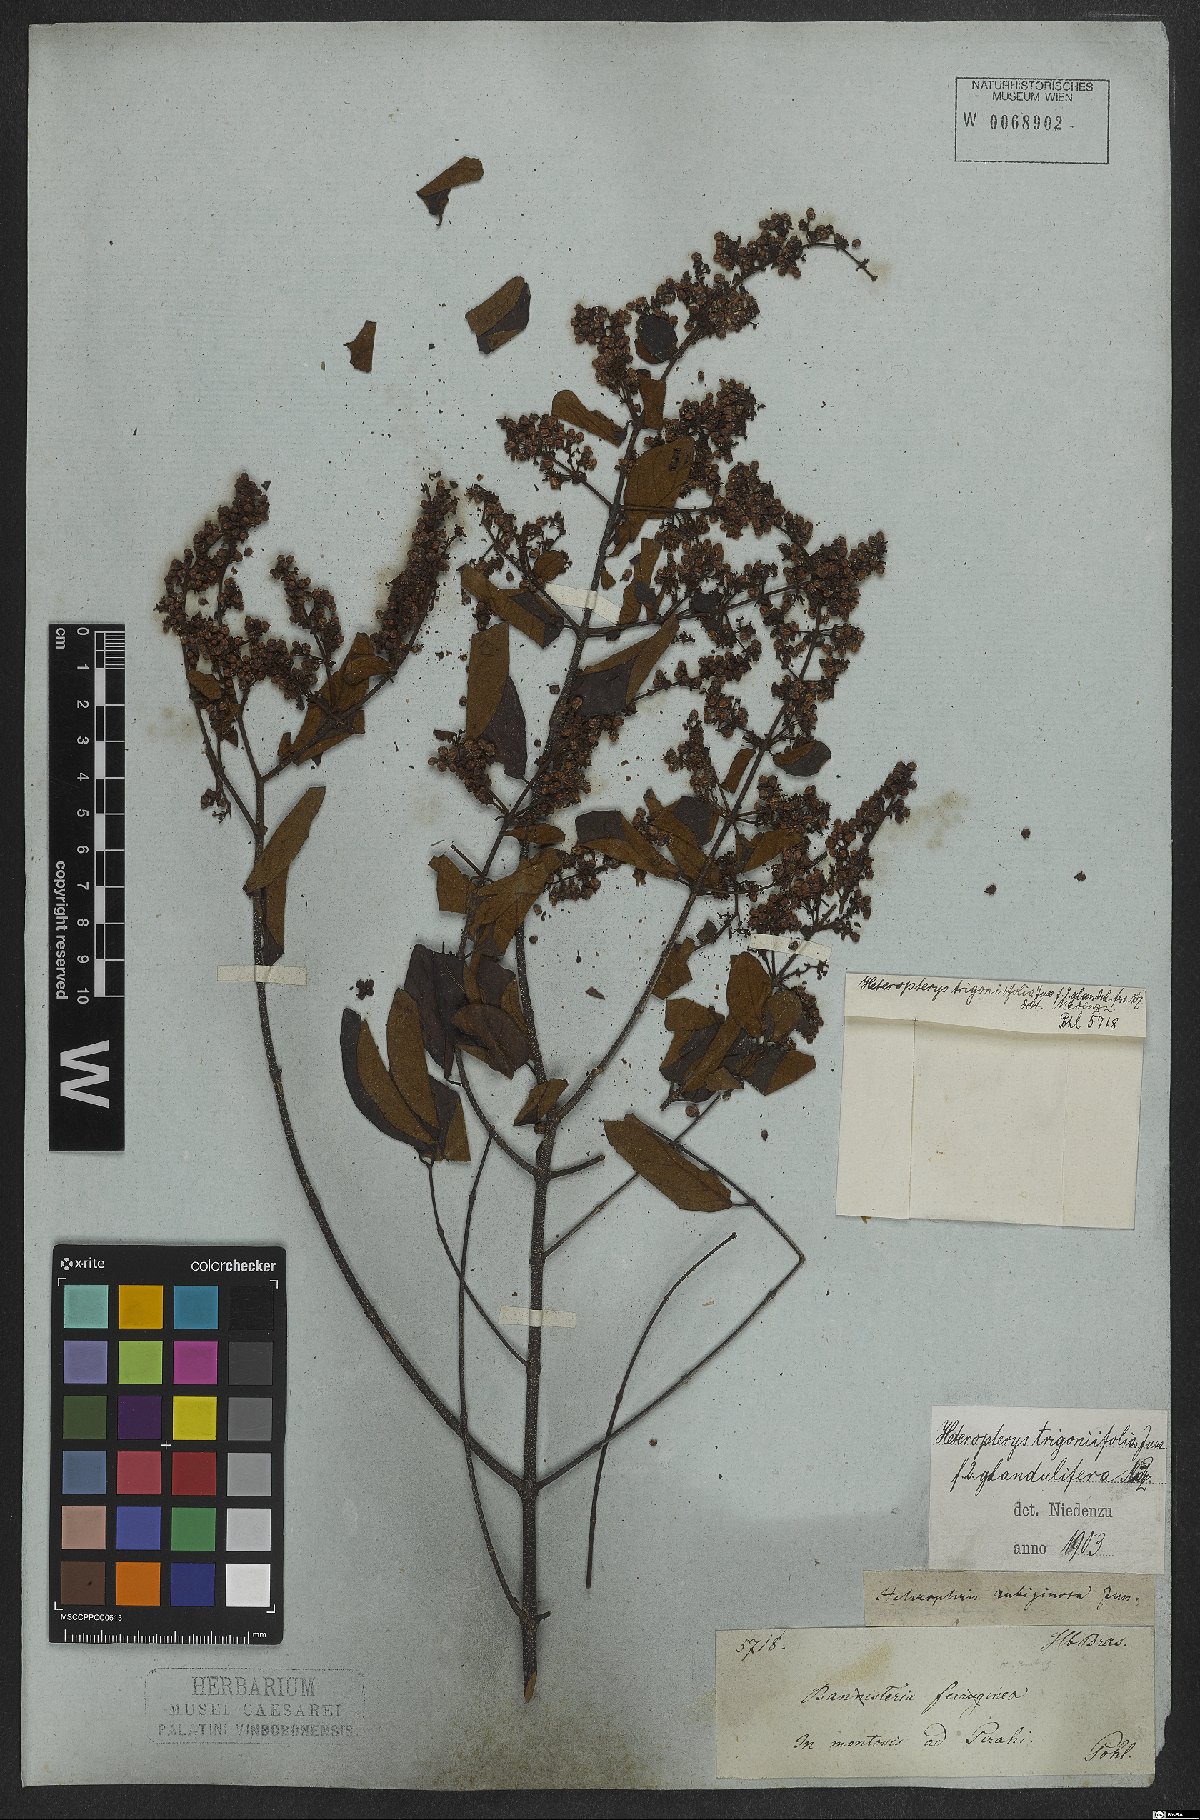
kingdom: Plantae
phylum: Tracheophyta
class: Magnoliopsida
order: Malpighiales
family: Malpighiaceae
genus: Heteropterys
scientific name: Heteropterys trigoniifolia
